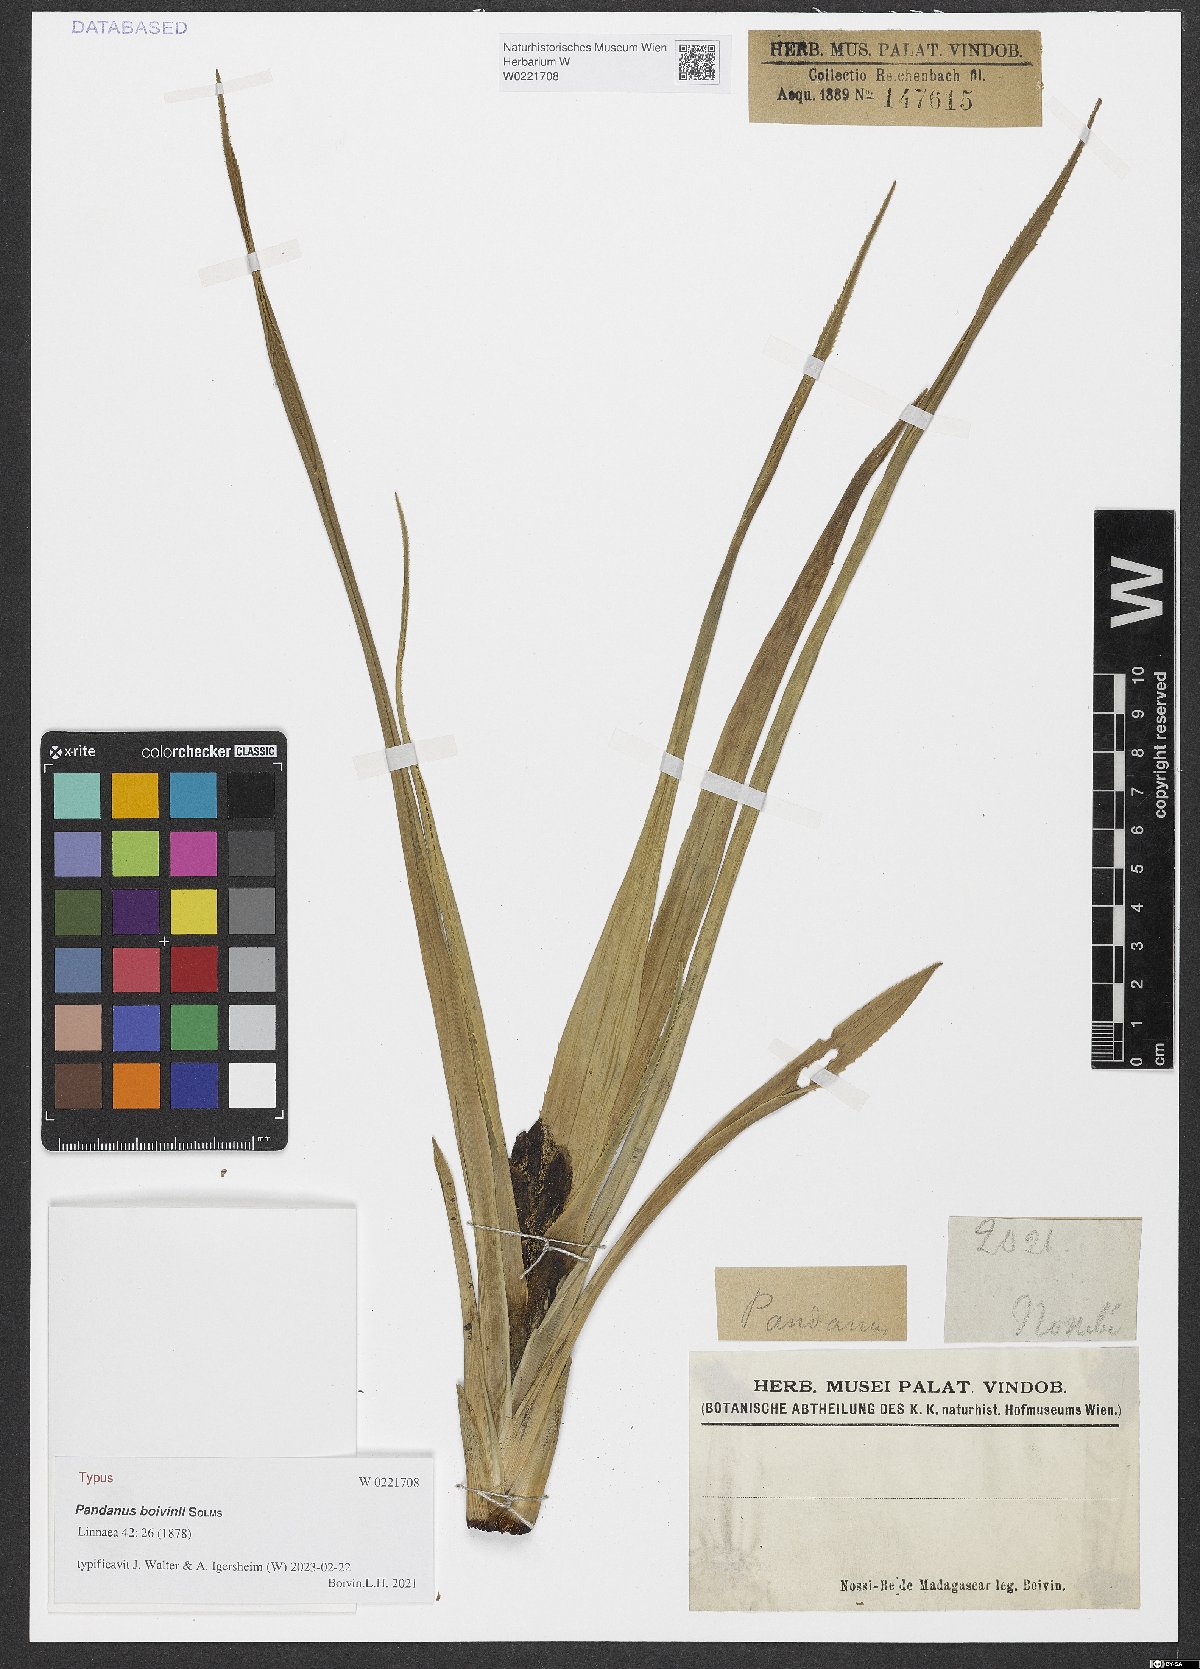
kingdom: Plantae
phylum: Tracheophyta
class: Liliopsida
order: Pandanales
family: Pandanaceae
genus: Pandanus
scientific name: Pandanus boivinii
